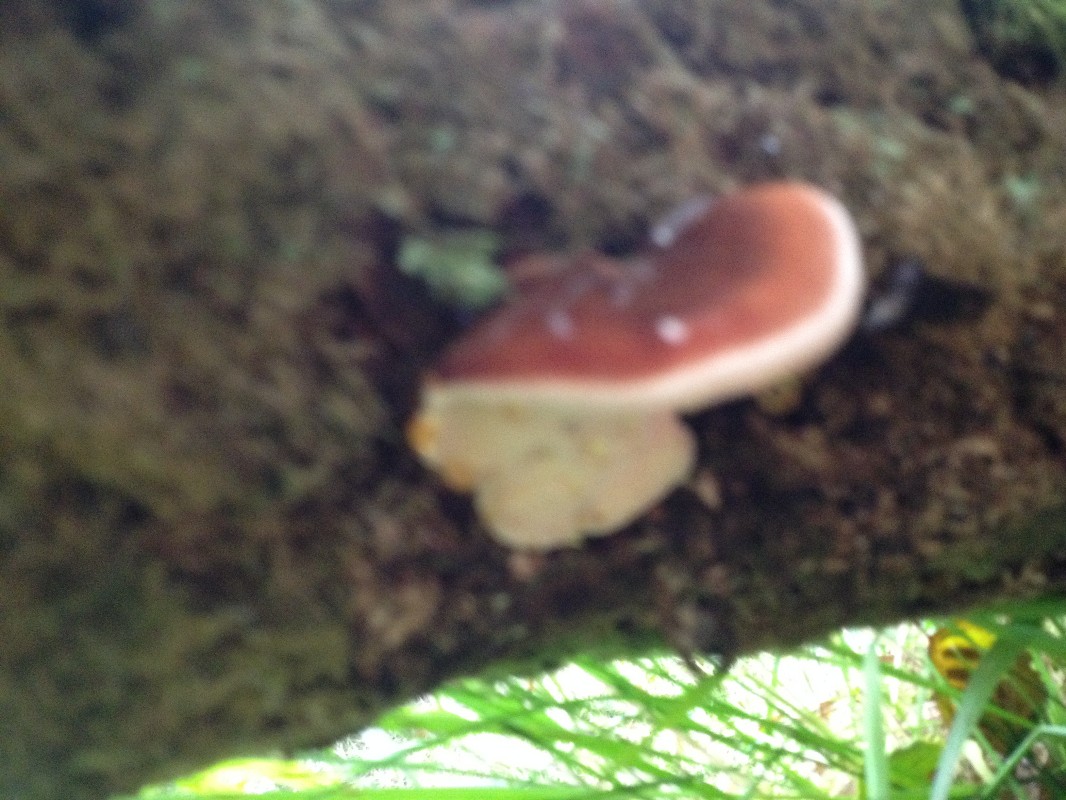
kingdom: Fungi
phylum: Basidiomycota
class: Agaricomycetes
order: Polyporales
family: Ischnodermataceae
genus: Ischnoderma
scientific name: Ischnoderma resinosum
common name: løv-tjæreporesvamp
